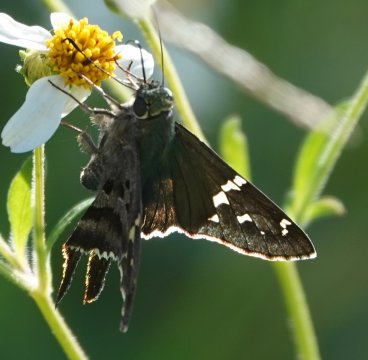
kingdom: Animalia
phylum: Arthropoda
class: Insecta
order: Lepidoptera
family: Hesperiidae
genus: Urbanus
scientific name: Urbanus proteus
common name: Long-tailed Skipper
